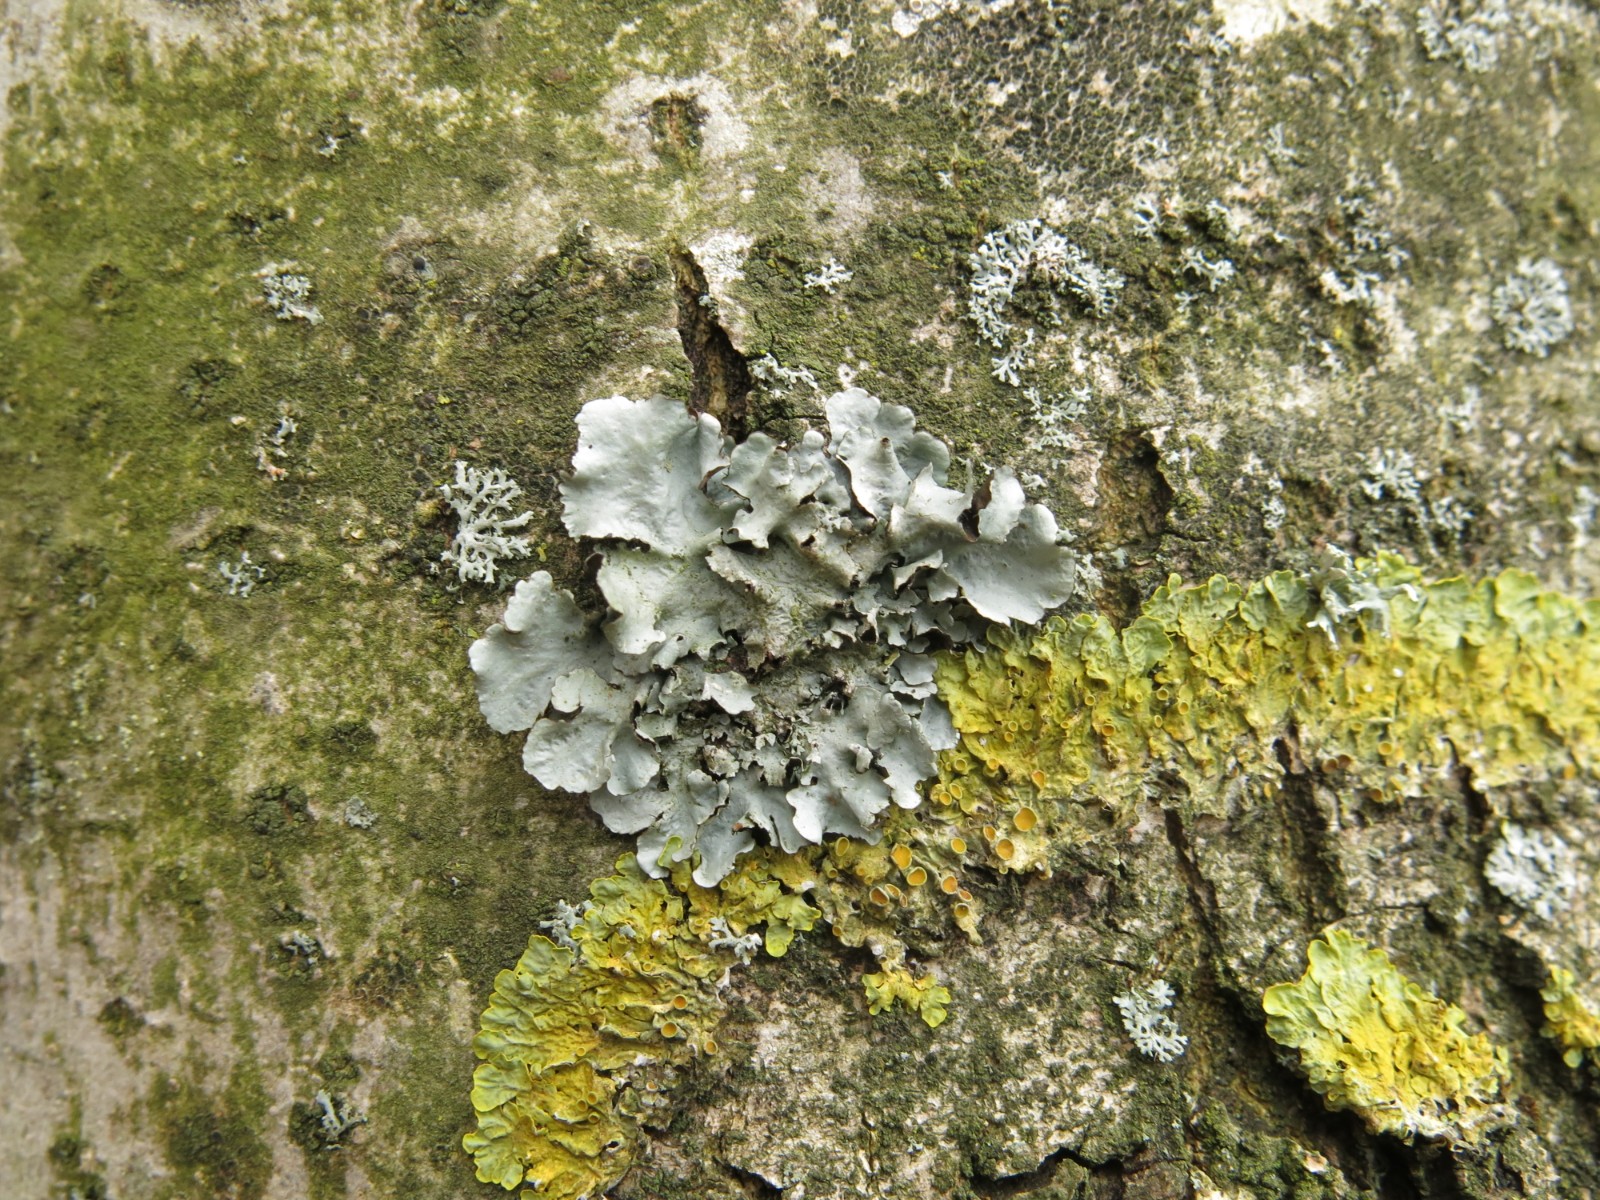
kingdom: Fungi
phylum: Ascomycota
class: Lecanoromycetes
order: Lecanorales
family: Parmeliaceae
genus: Parmotrema
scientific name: Parmotrema perlatum
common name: trådet skållav
